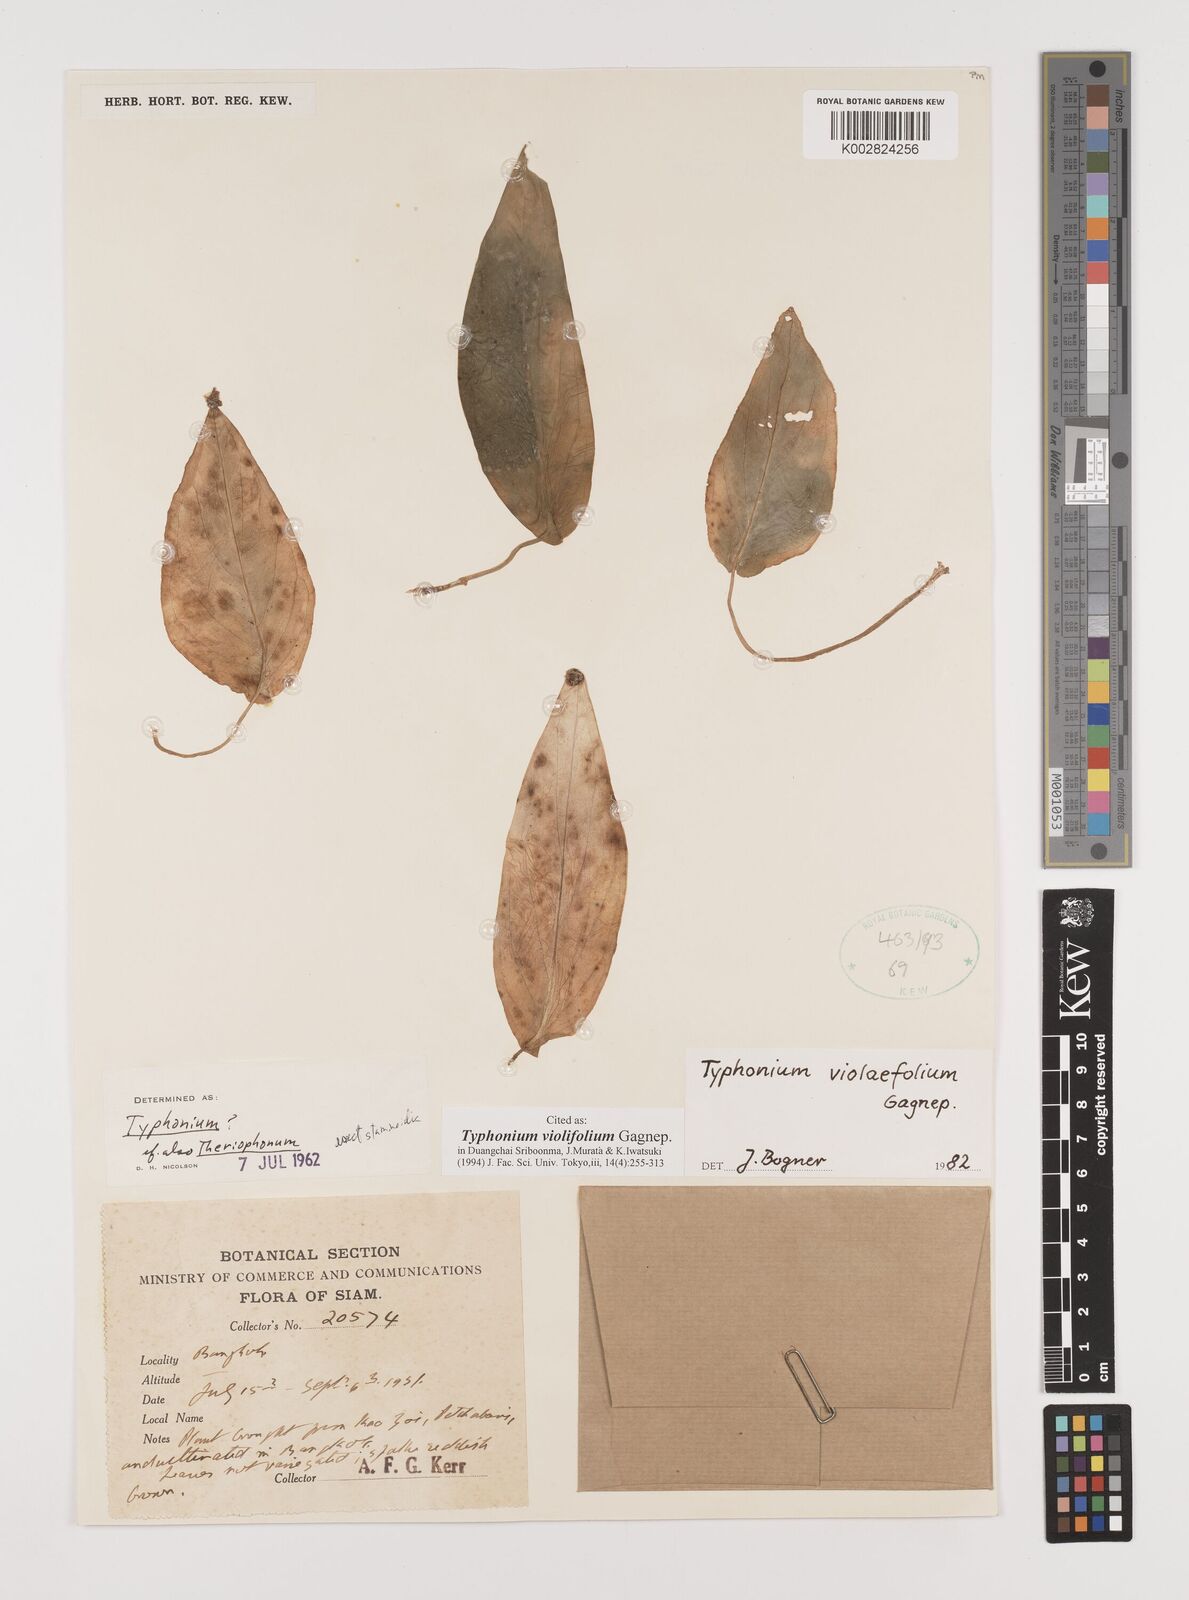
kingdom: Plantae
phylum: Tracheophyta
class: Liliopsida
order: Alismatales
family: Araceae
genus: Typhonium
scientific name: Typhonium violifolium
